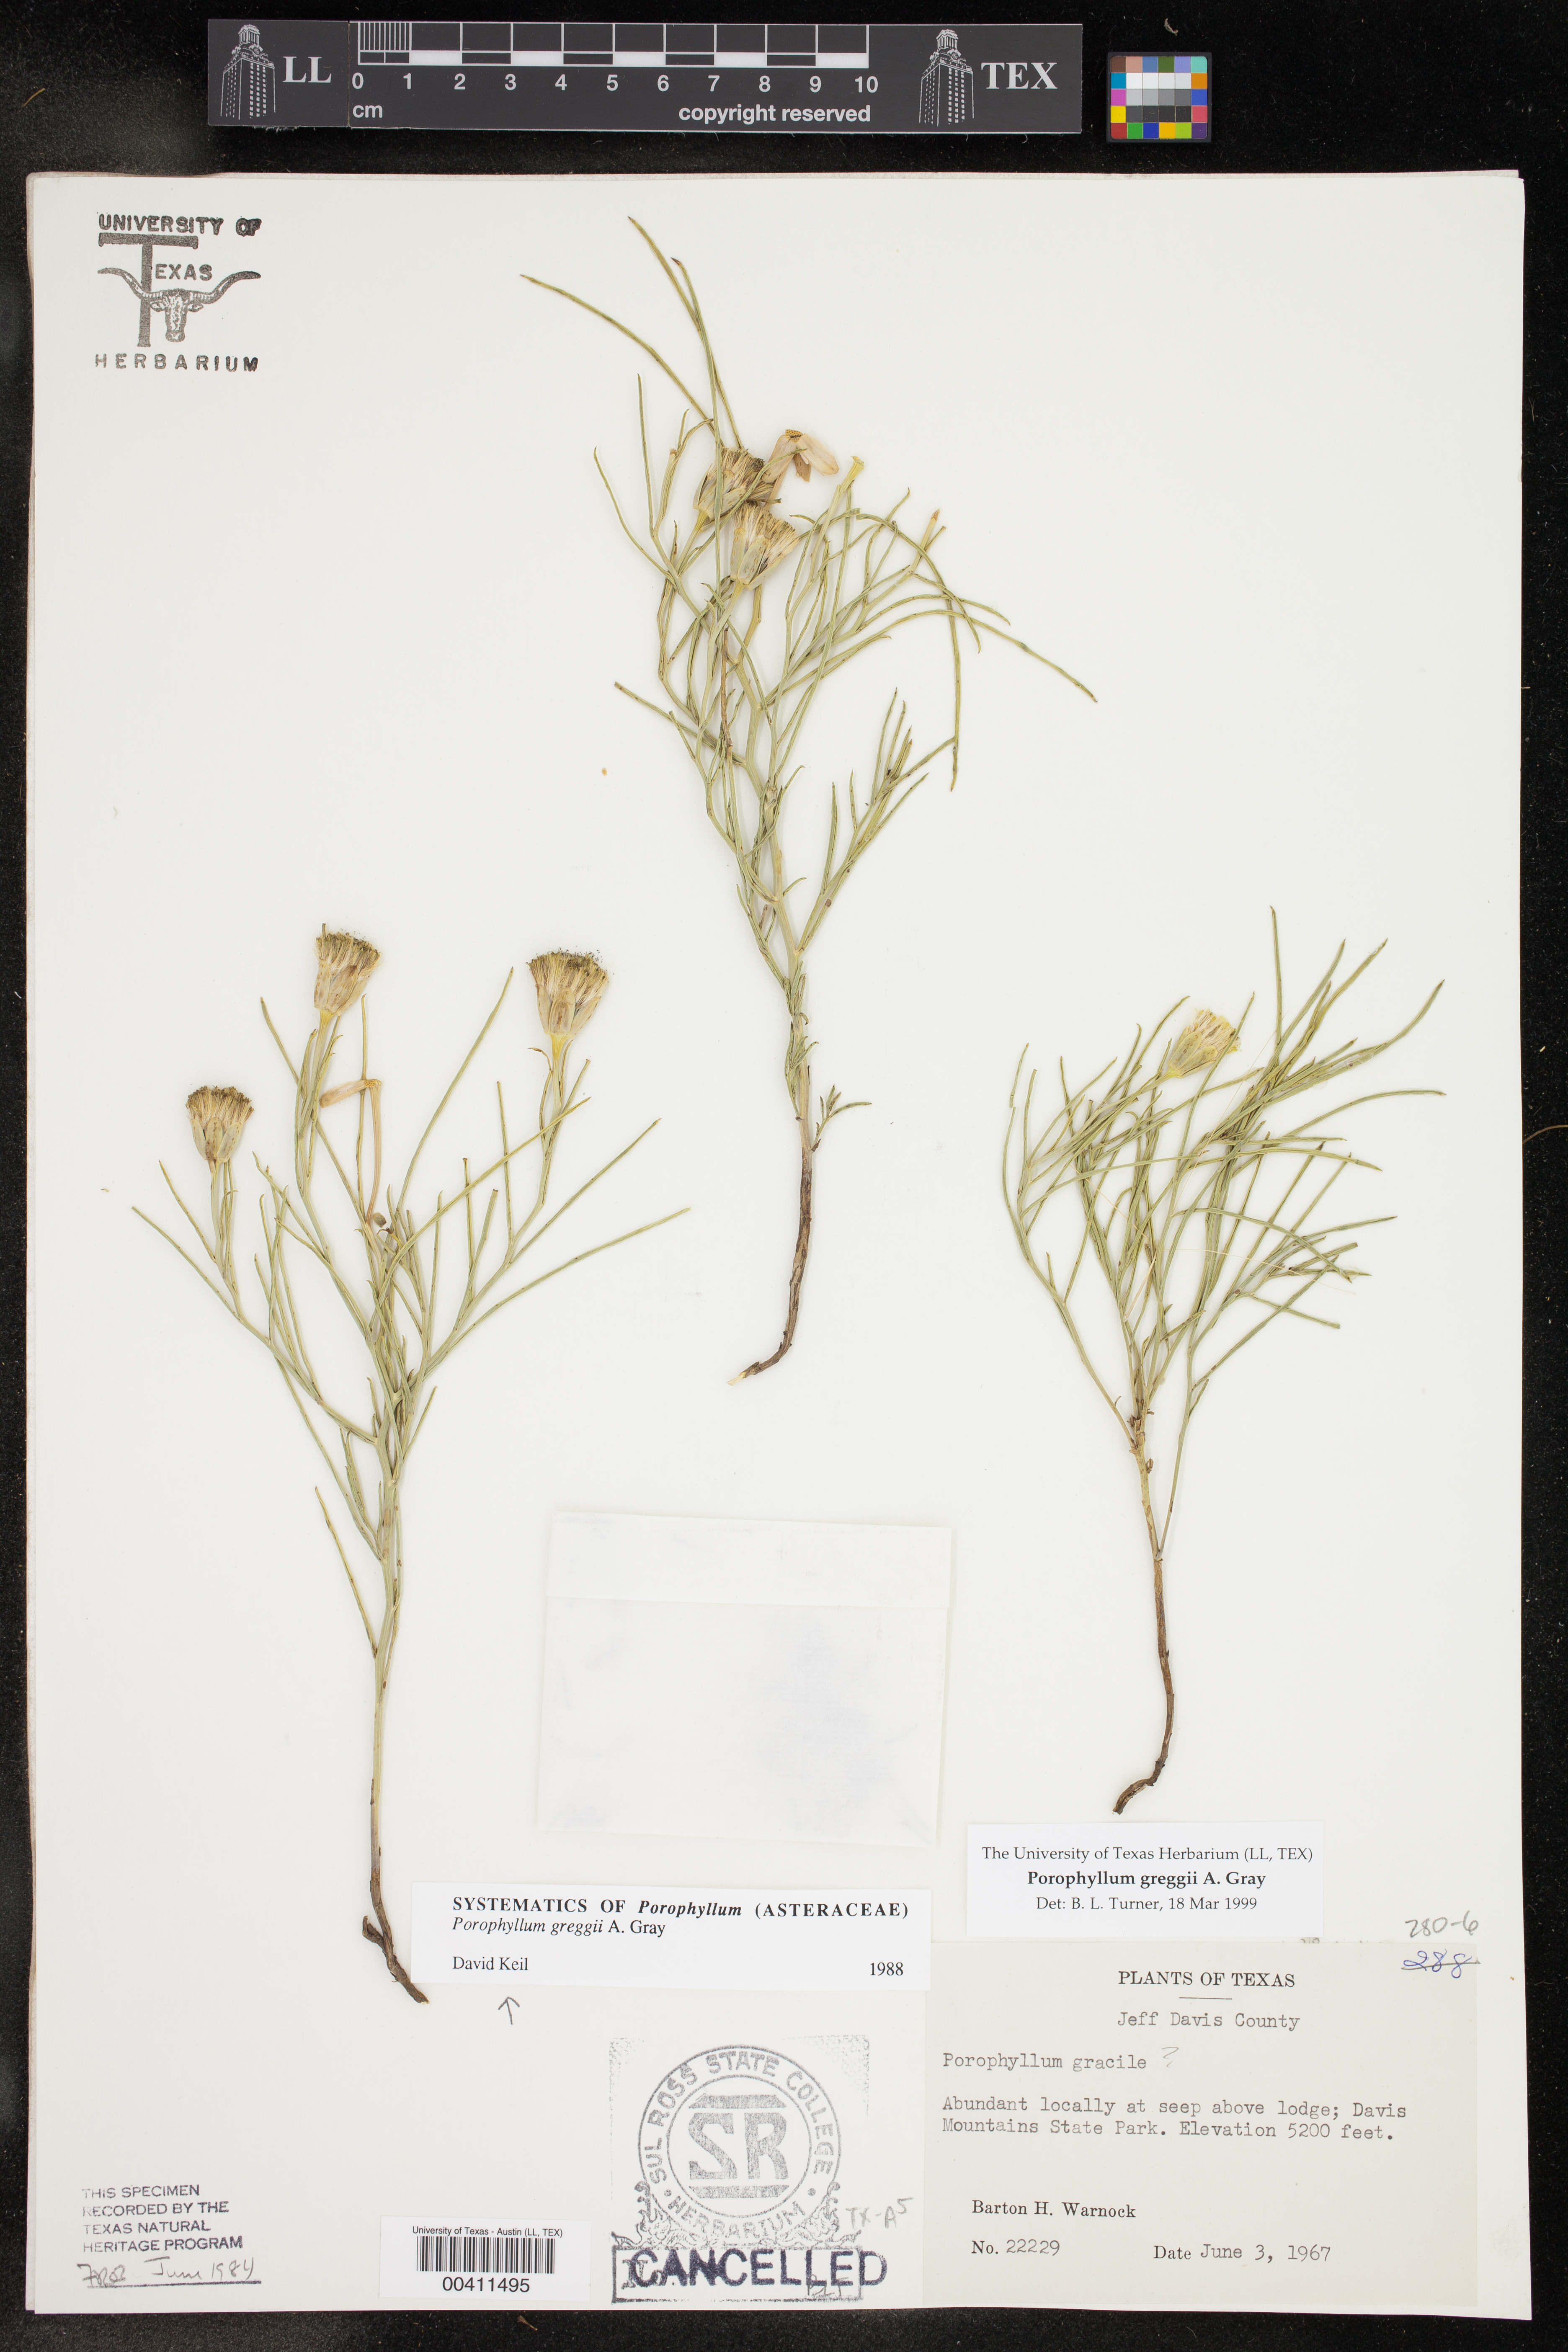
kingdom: Plantae
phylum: Tracheophyta
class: Magnoliopsida
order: Asterales
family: Asteraceae
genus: Porophyllum
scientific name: Porophyllum greggii
